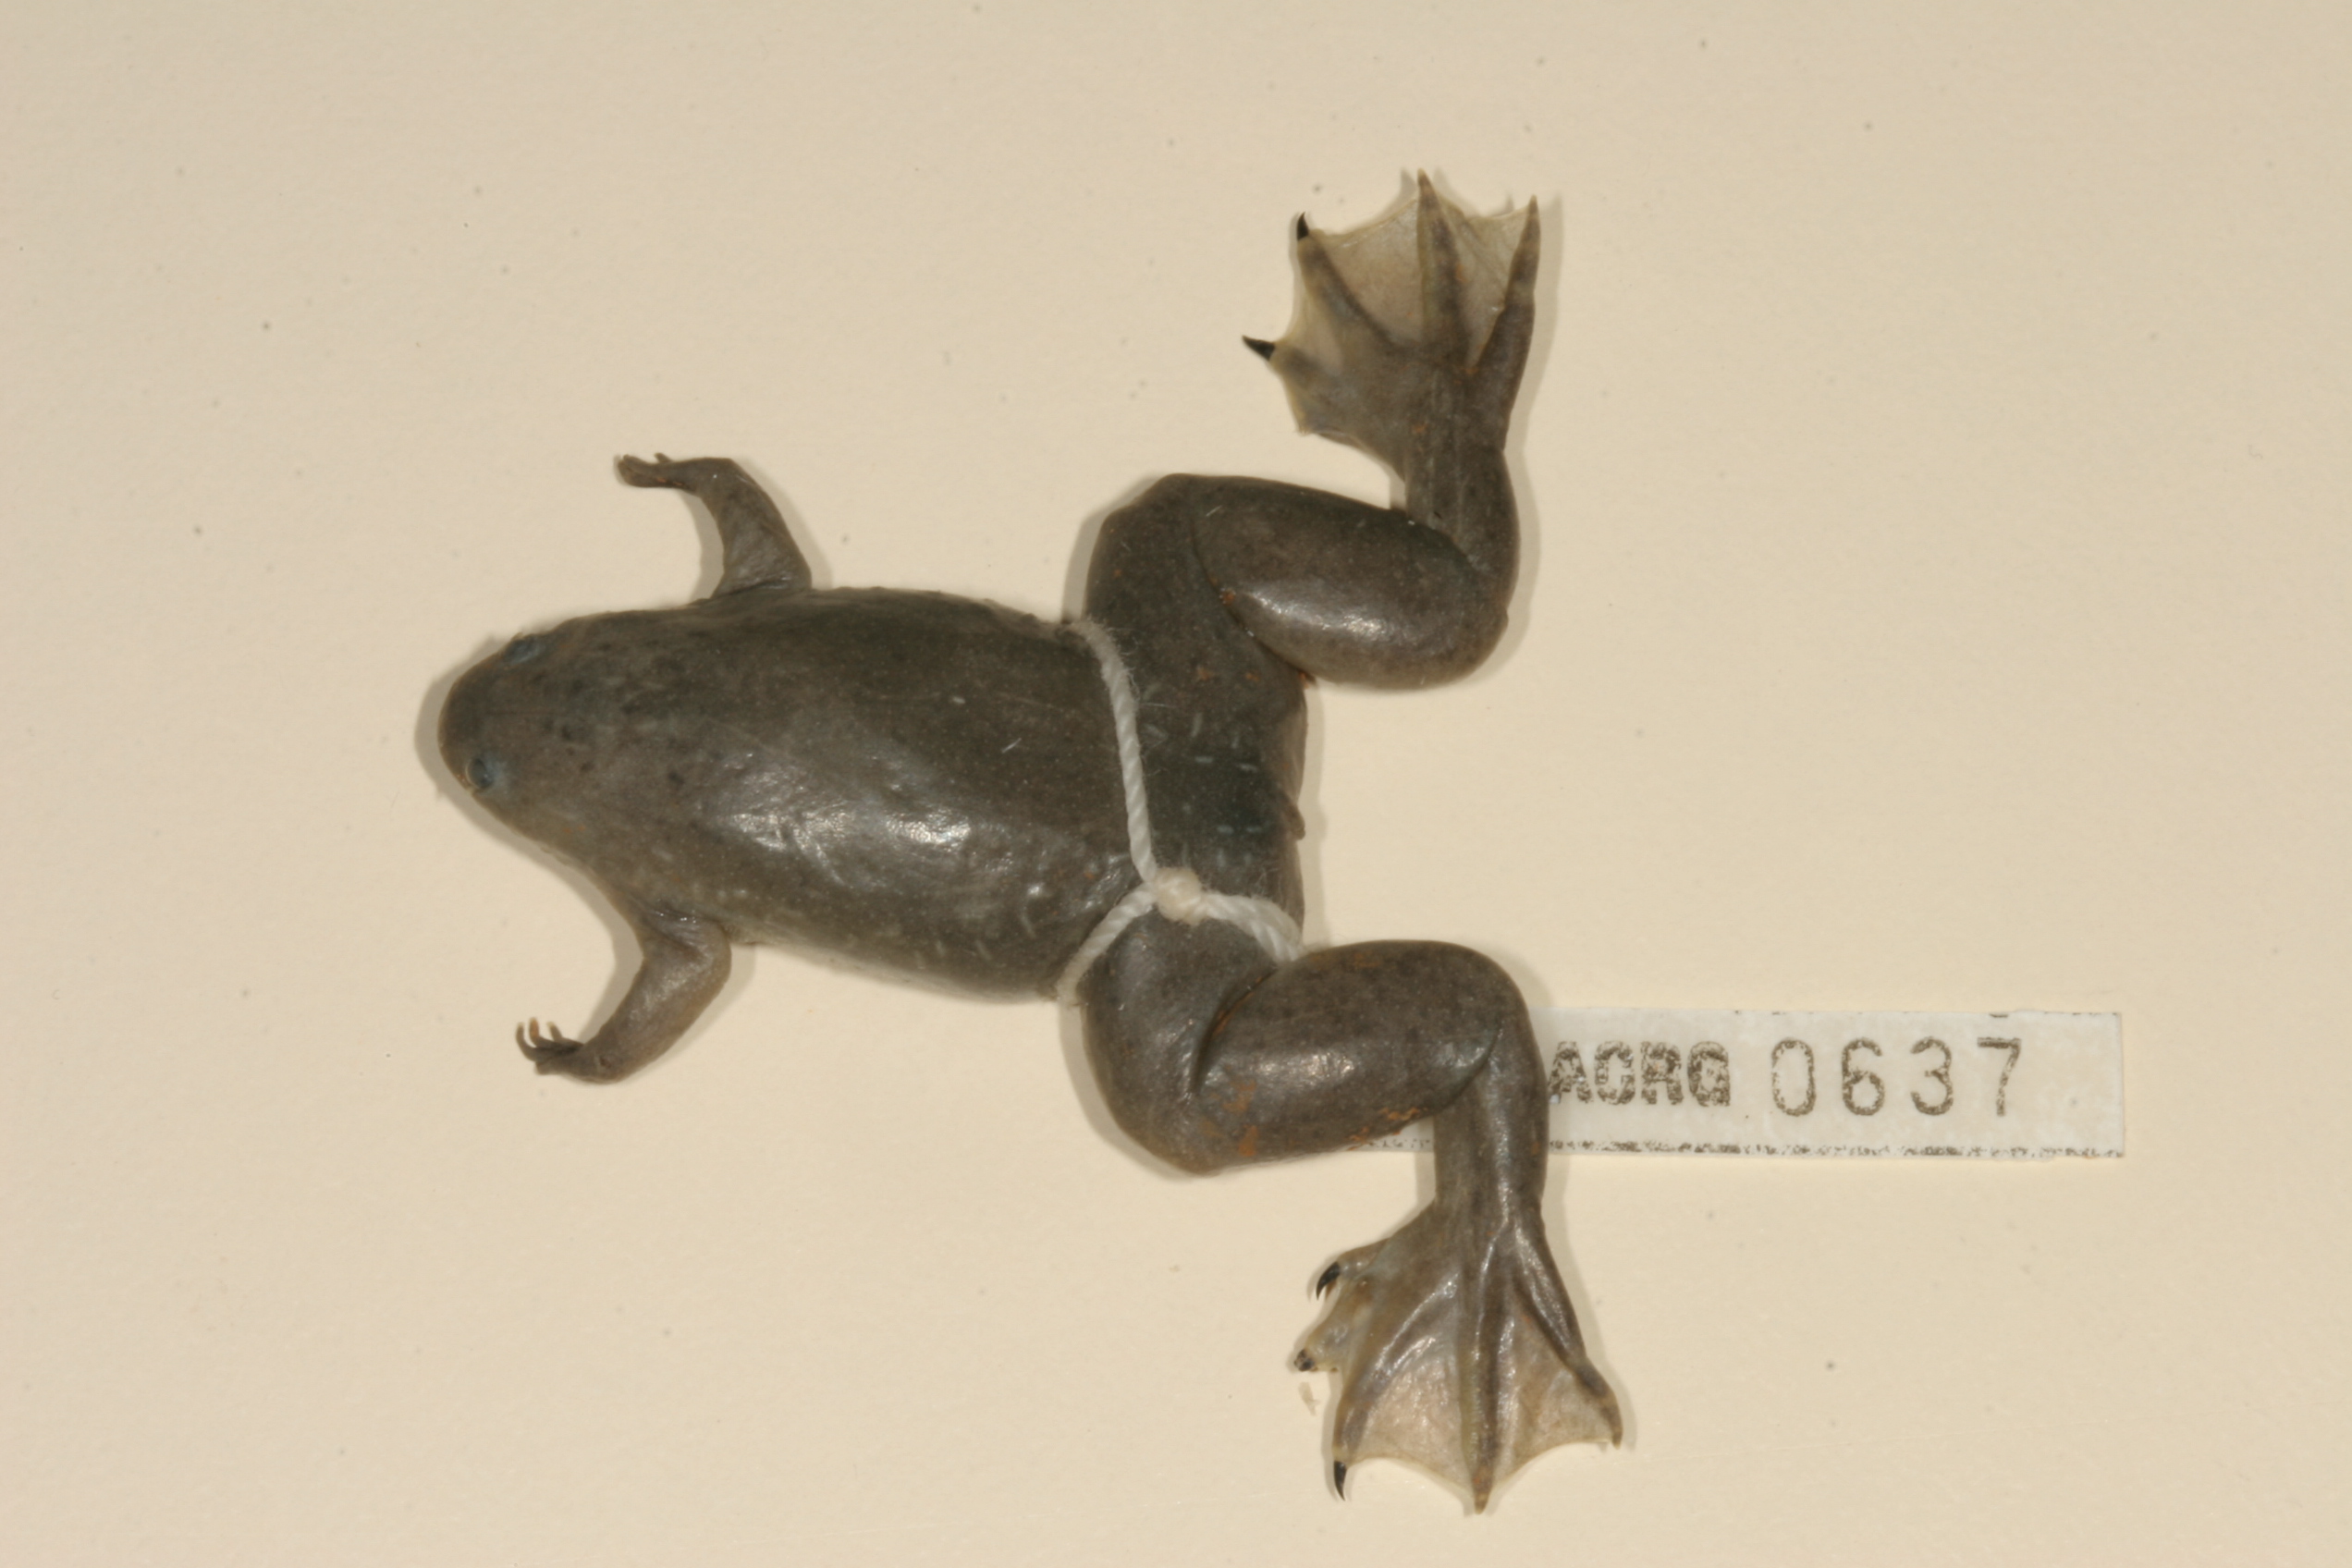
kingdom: Animalia
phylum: Chordata
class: Amphibia
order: Anura
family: Pipidae
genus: Xenopus
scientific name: Xenopus tropicalis
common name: Forest clawed frog
